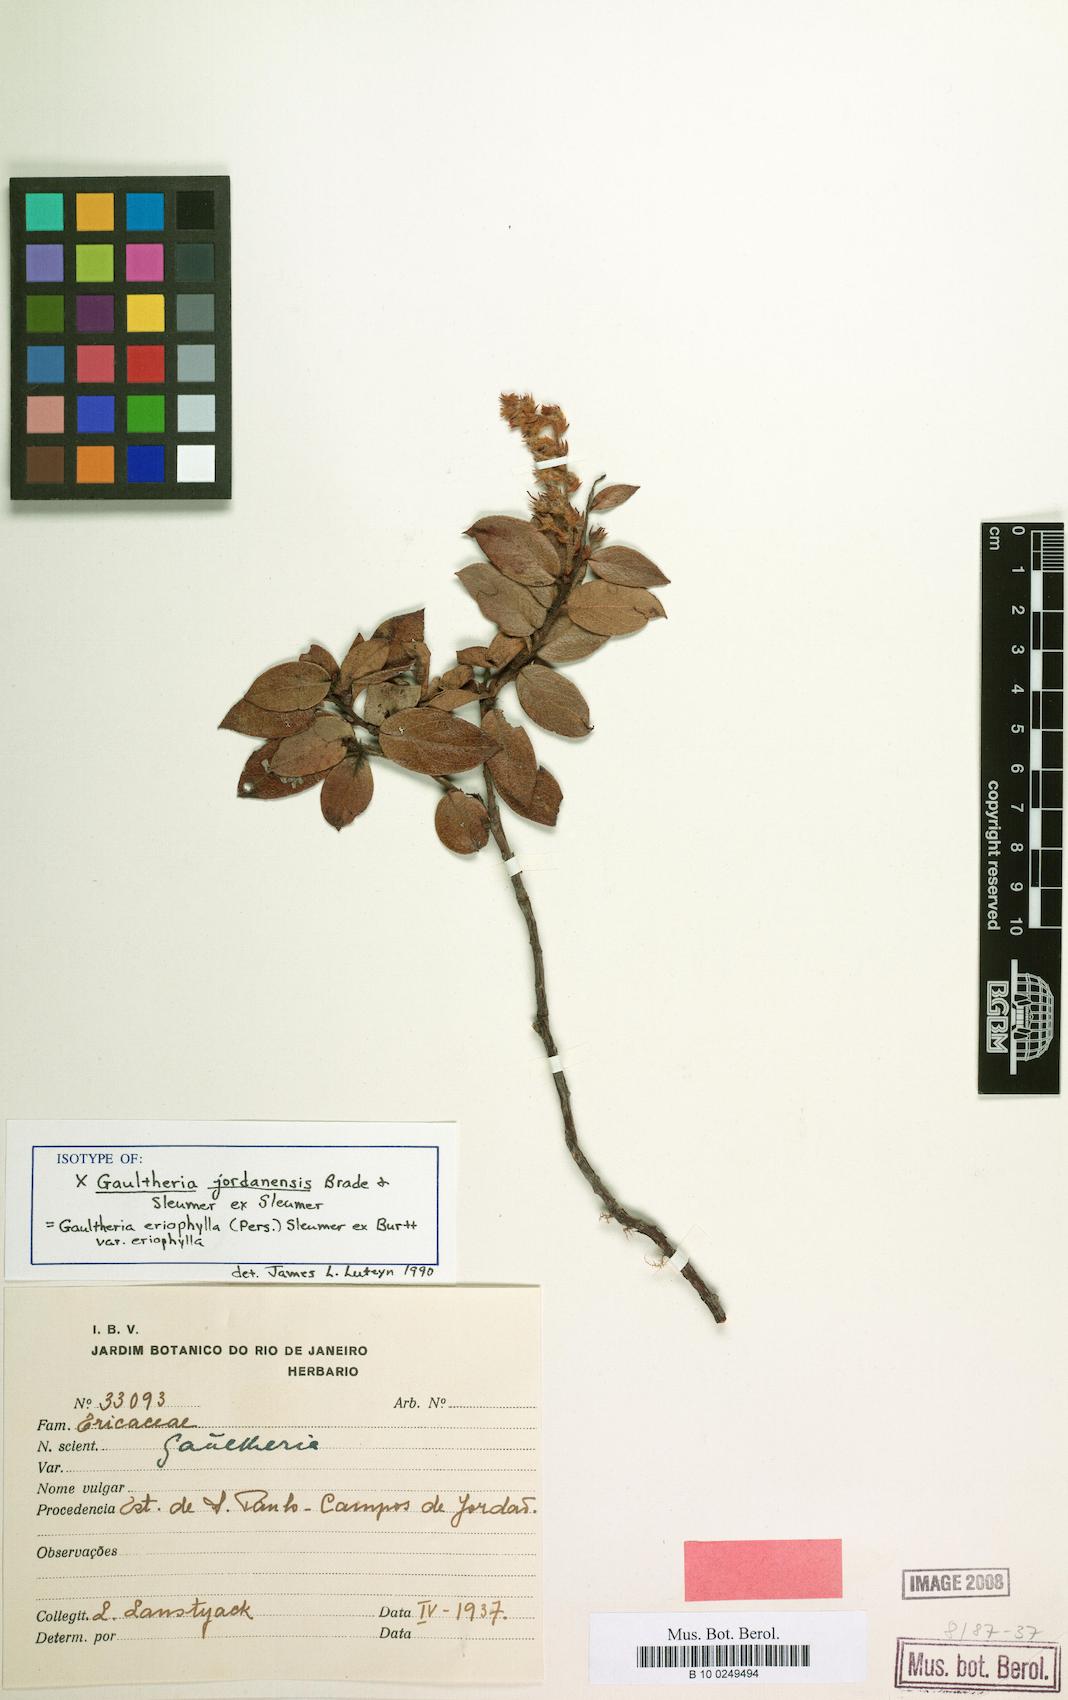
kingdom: Plantae
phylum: Tracheophyta
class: Magnoliopsida
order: Ericales
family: Ericaceae
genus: Gaultheria
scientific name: Gaultheria jordanensis
